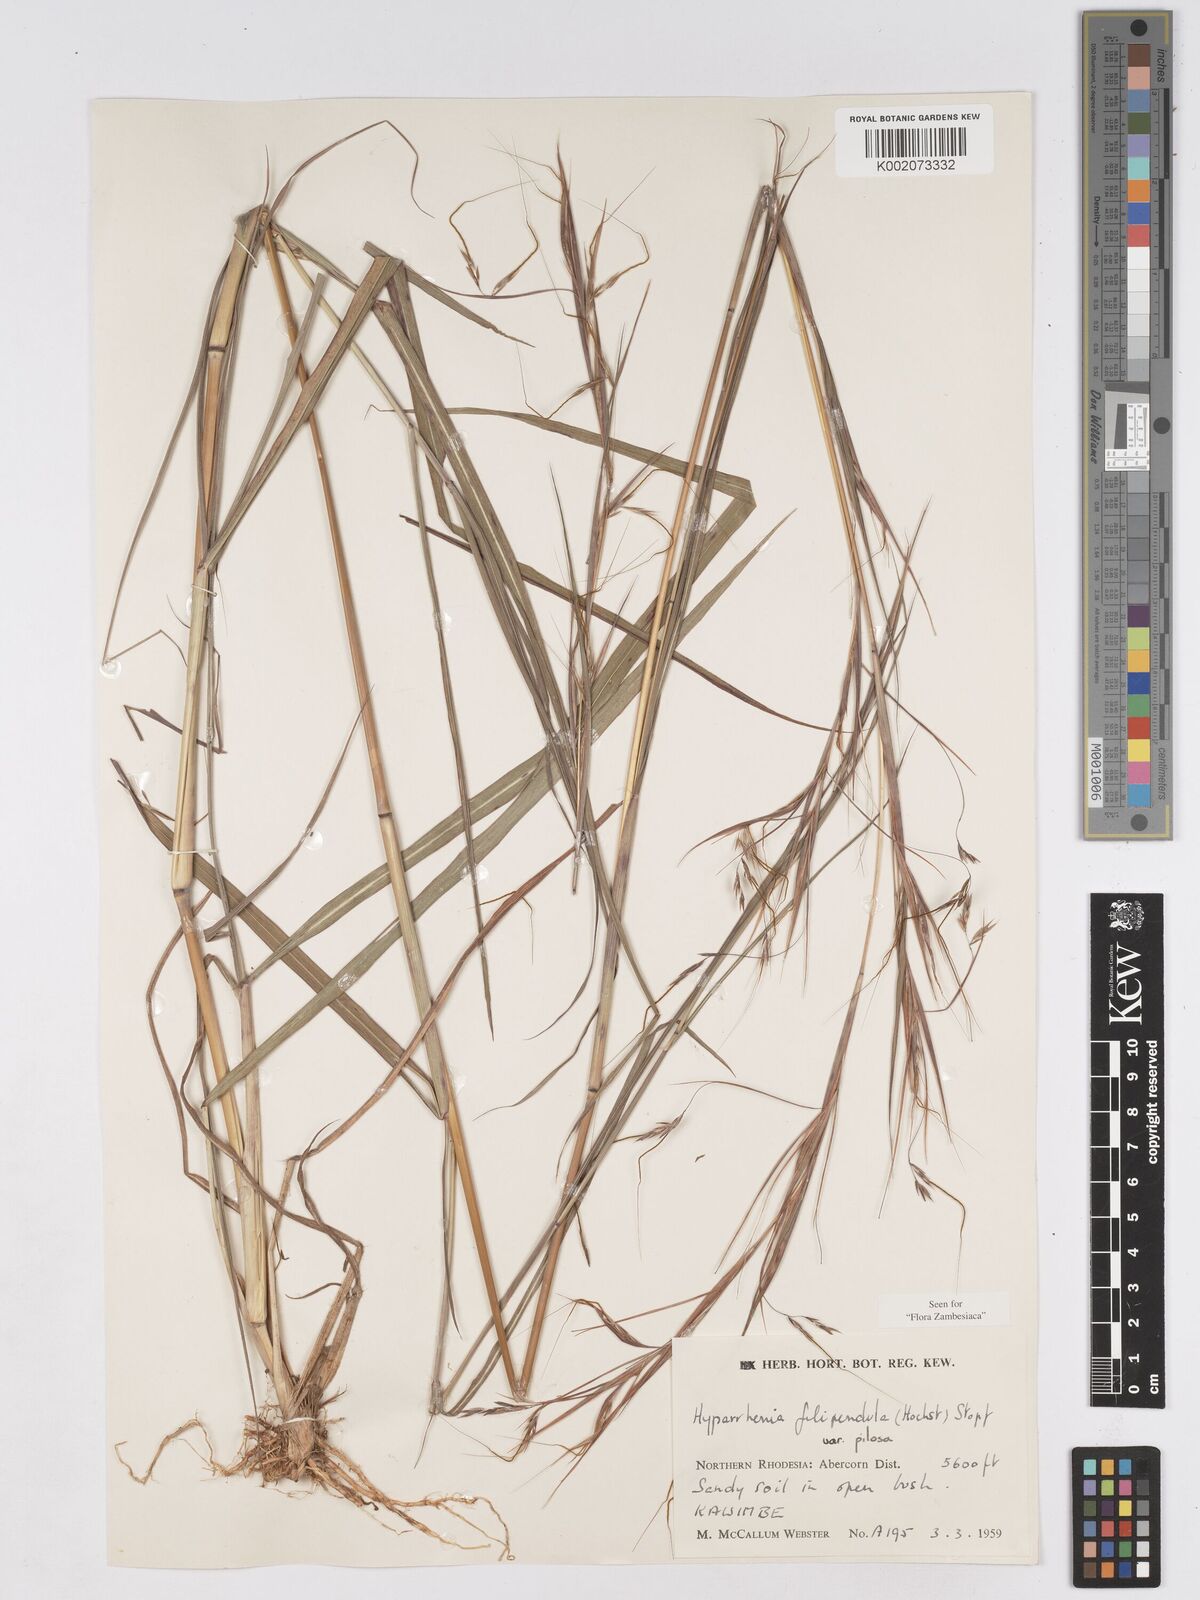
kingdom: Plantae
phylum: Tracheophyta
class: Liliopsida
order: Poales
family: Poaceae
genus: Hyparrhenia
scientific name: Hyparrhenia filipendula
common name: Tambookie grass
